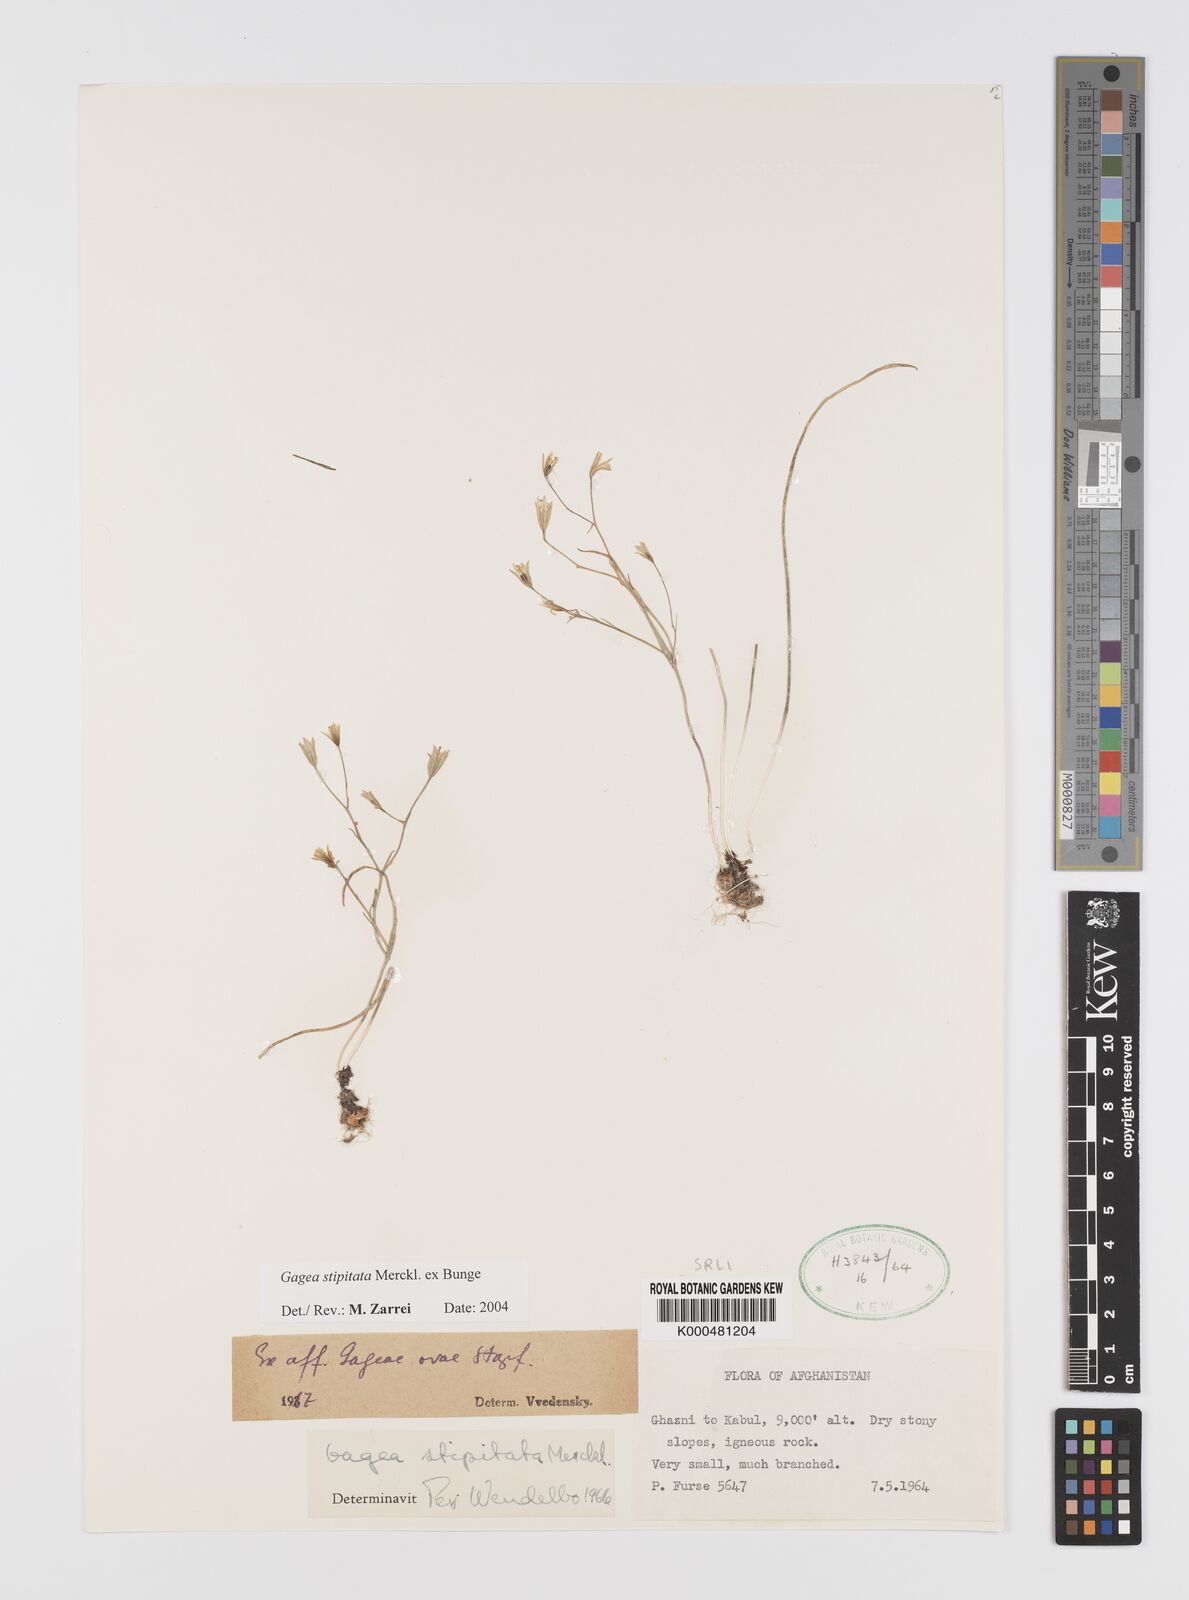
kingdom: Plantae
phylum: Tracheophyta
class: Liliopsida
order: Liliales
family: Liliaceae
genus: Gagea
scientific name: Gagea kunawurensis
